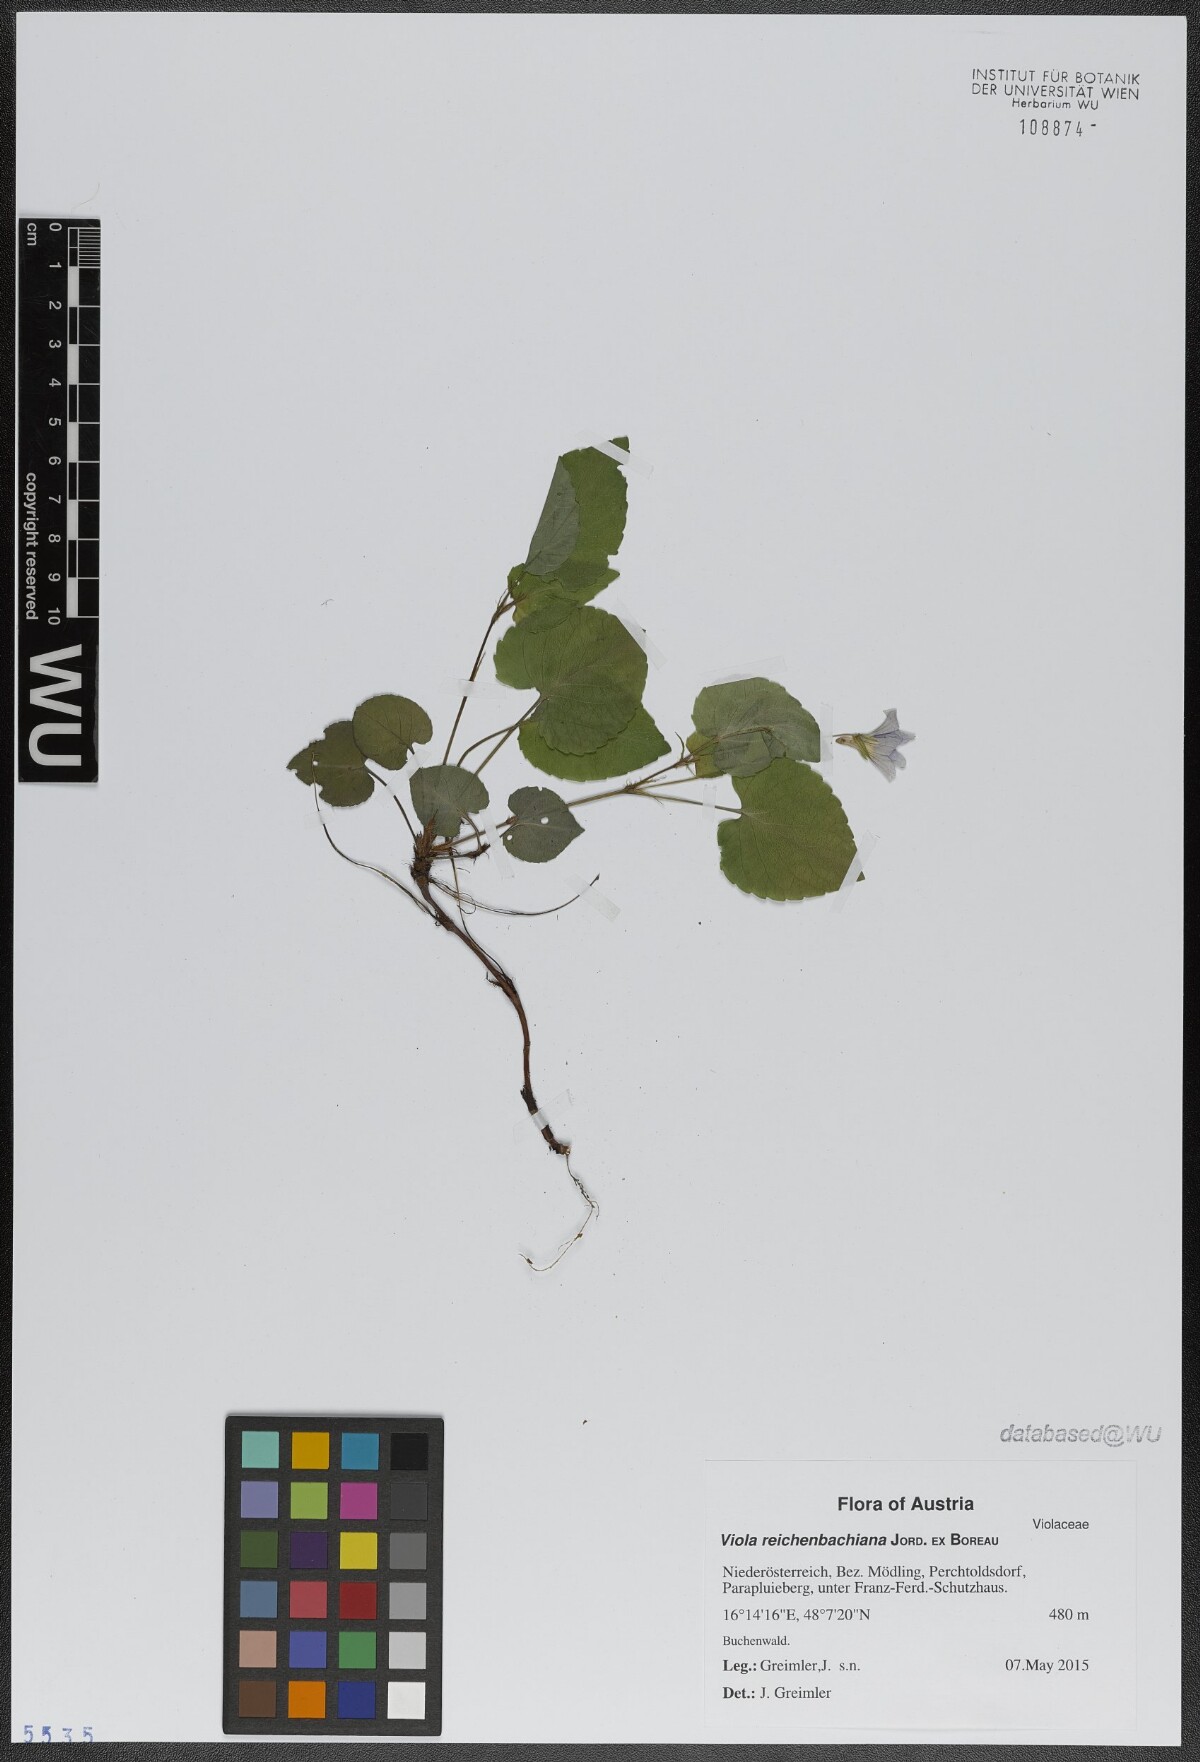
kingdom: Plantae
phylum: Tracheophyta
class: Magnoliopsida
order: Malpighiales
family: Violaceae
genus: Viola
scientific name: Viola reichenbachiana
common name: Early dog-violet
